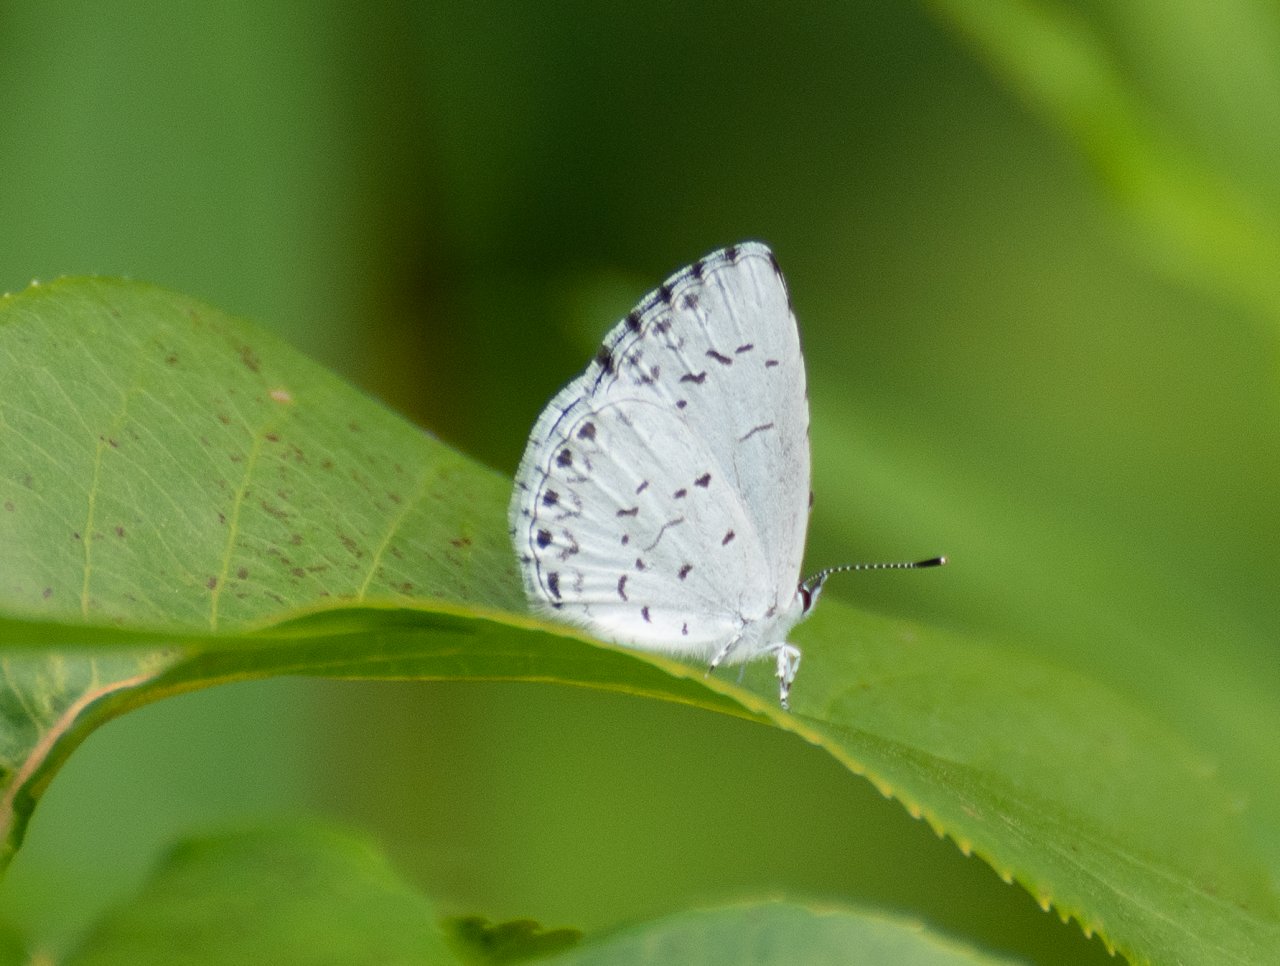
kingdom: Animalia
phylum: Arthropoda
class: Insecta
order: Lepidoptera
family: Lycaenidae
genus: Celastrina
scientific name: Celastrina lucia
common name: Northern Spring Azure
